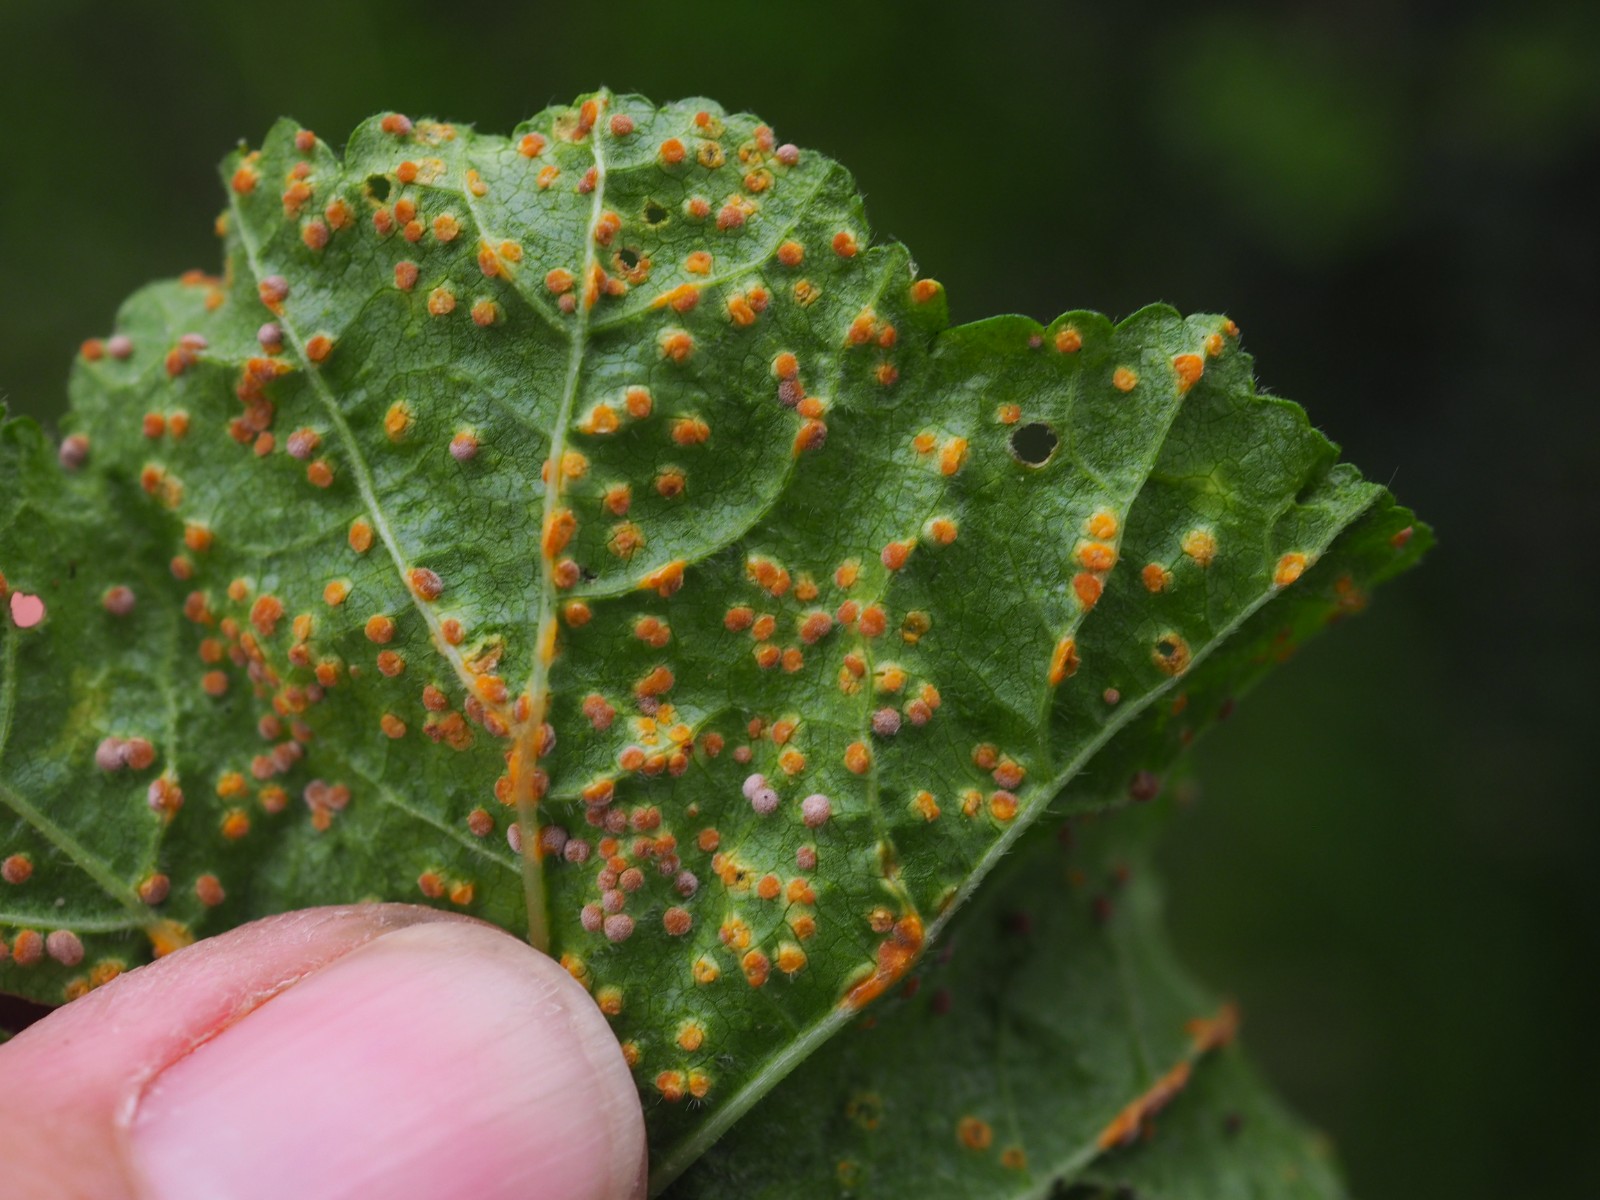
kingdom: Fungi
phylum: Basidiomycota
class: Pucciniomycetes
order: Pucciniales
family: Pucciniaceae
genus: Puccinia
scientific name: Puccinia malvacearum
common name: stokrose-tvecellerust
